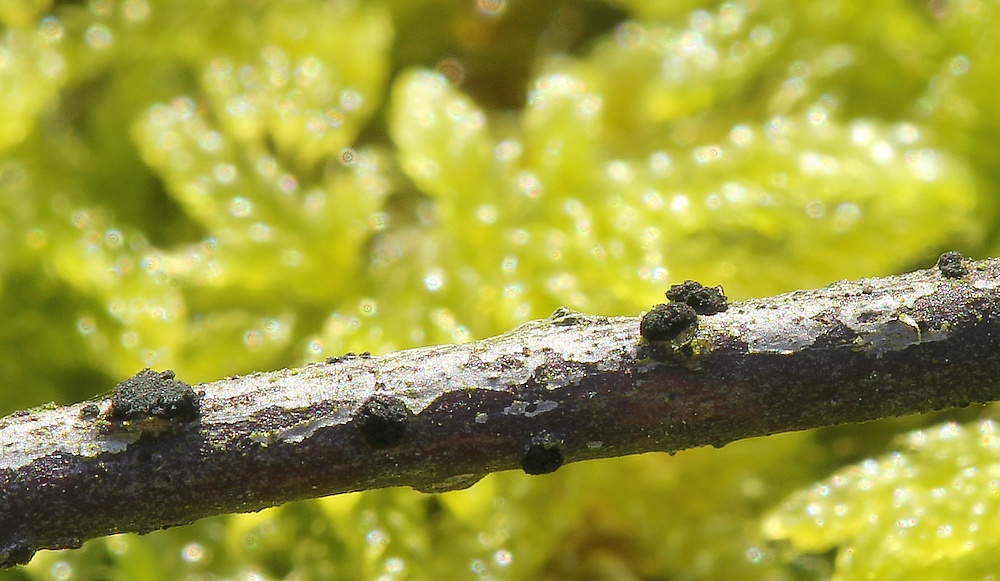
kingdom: Fungi
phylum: Ascomycota
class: Leotiomycetes
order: Helotiales
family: Mollisiaceae
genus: Trimmatostroma
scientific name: Trimmatostroma betulinum
